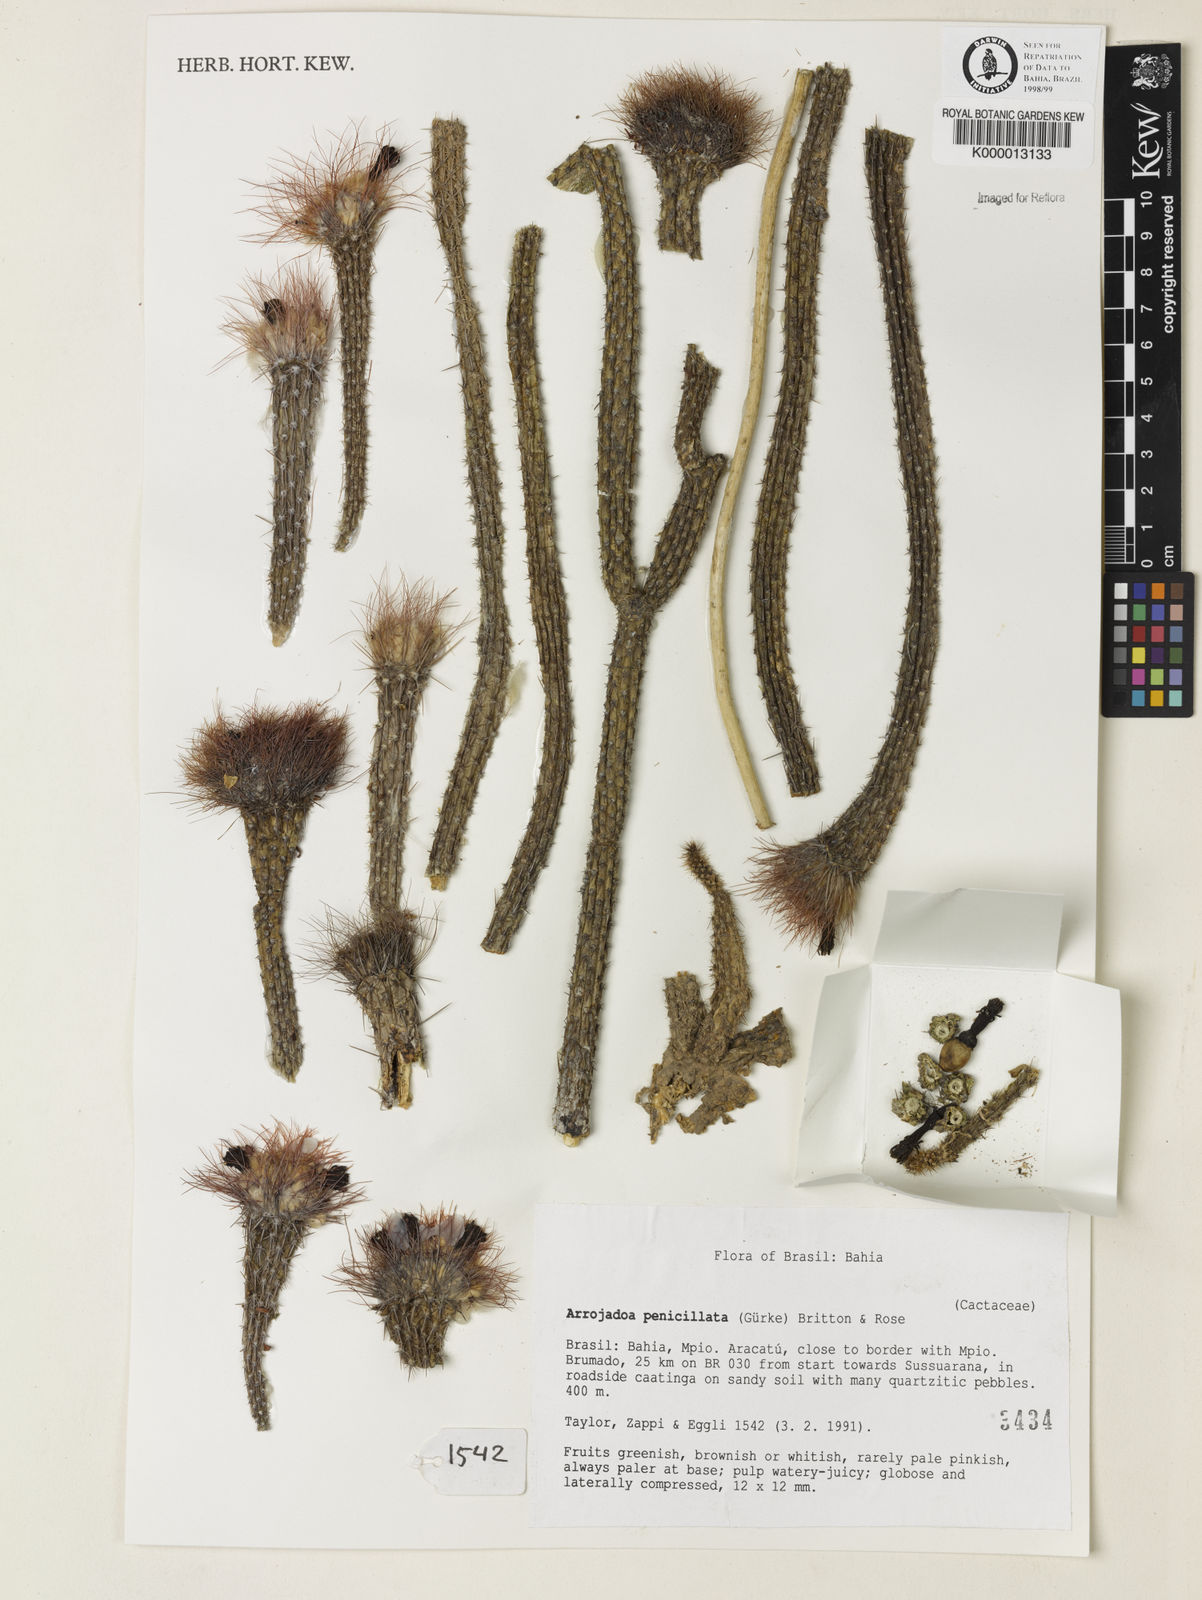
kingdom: Plantae
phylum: Tracheophyta
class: Magnoliopsida
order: Lamiales
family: Lamiaceae
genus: Callicarpa
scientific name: Callicarpa cinnamomea
